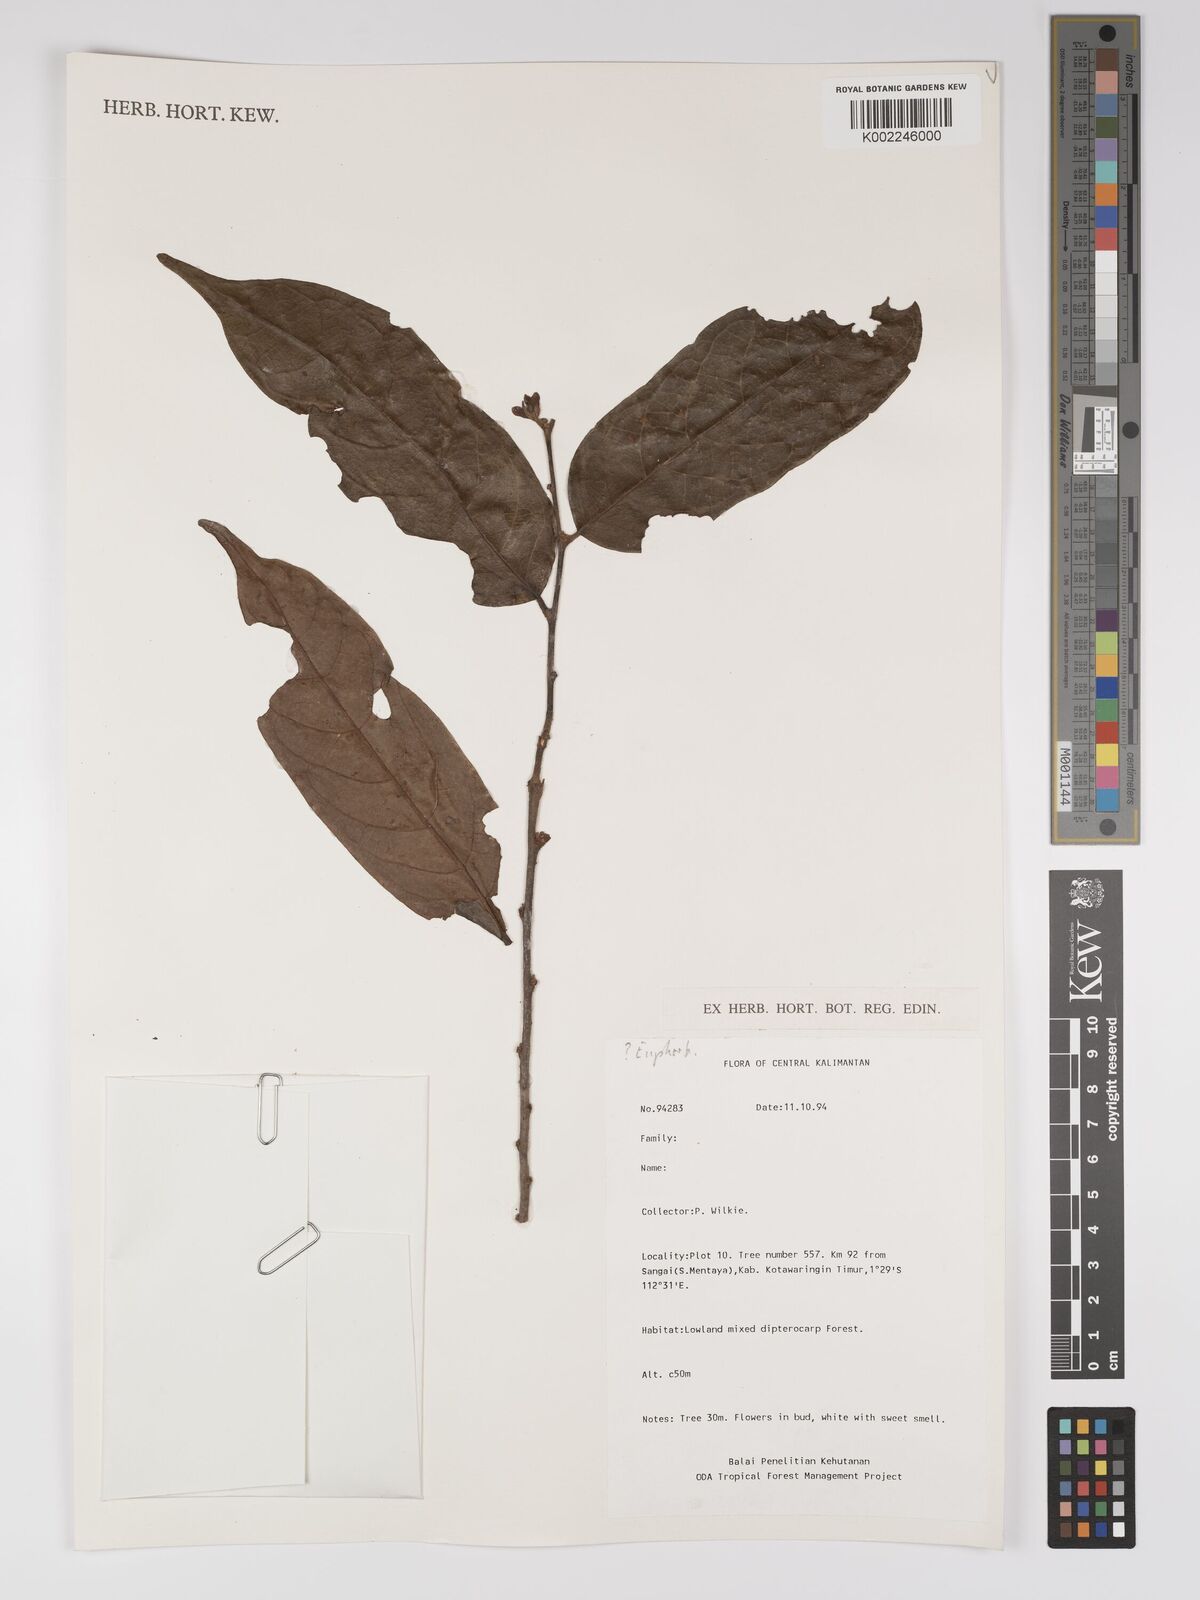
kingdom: Plantae
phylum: Tracheophyta
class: Magnoliopsida
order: Malpighiales
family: Euphorbiaceae
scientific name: Euphorbiaceae
